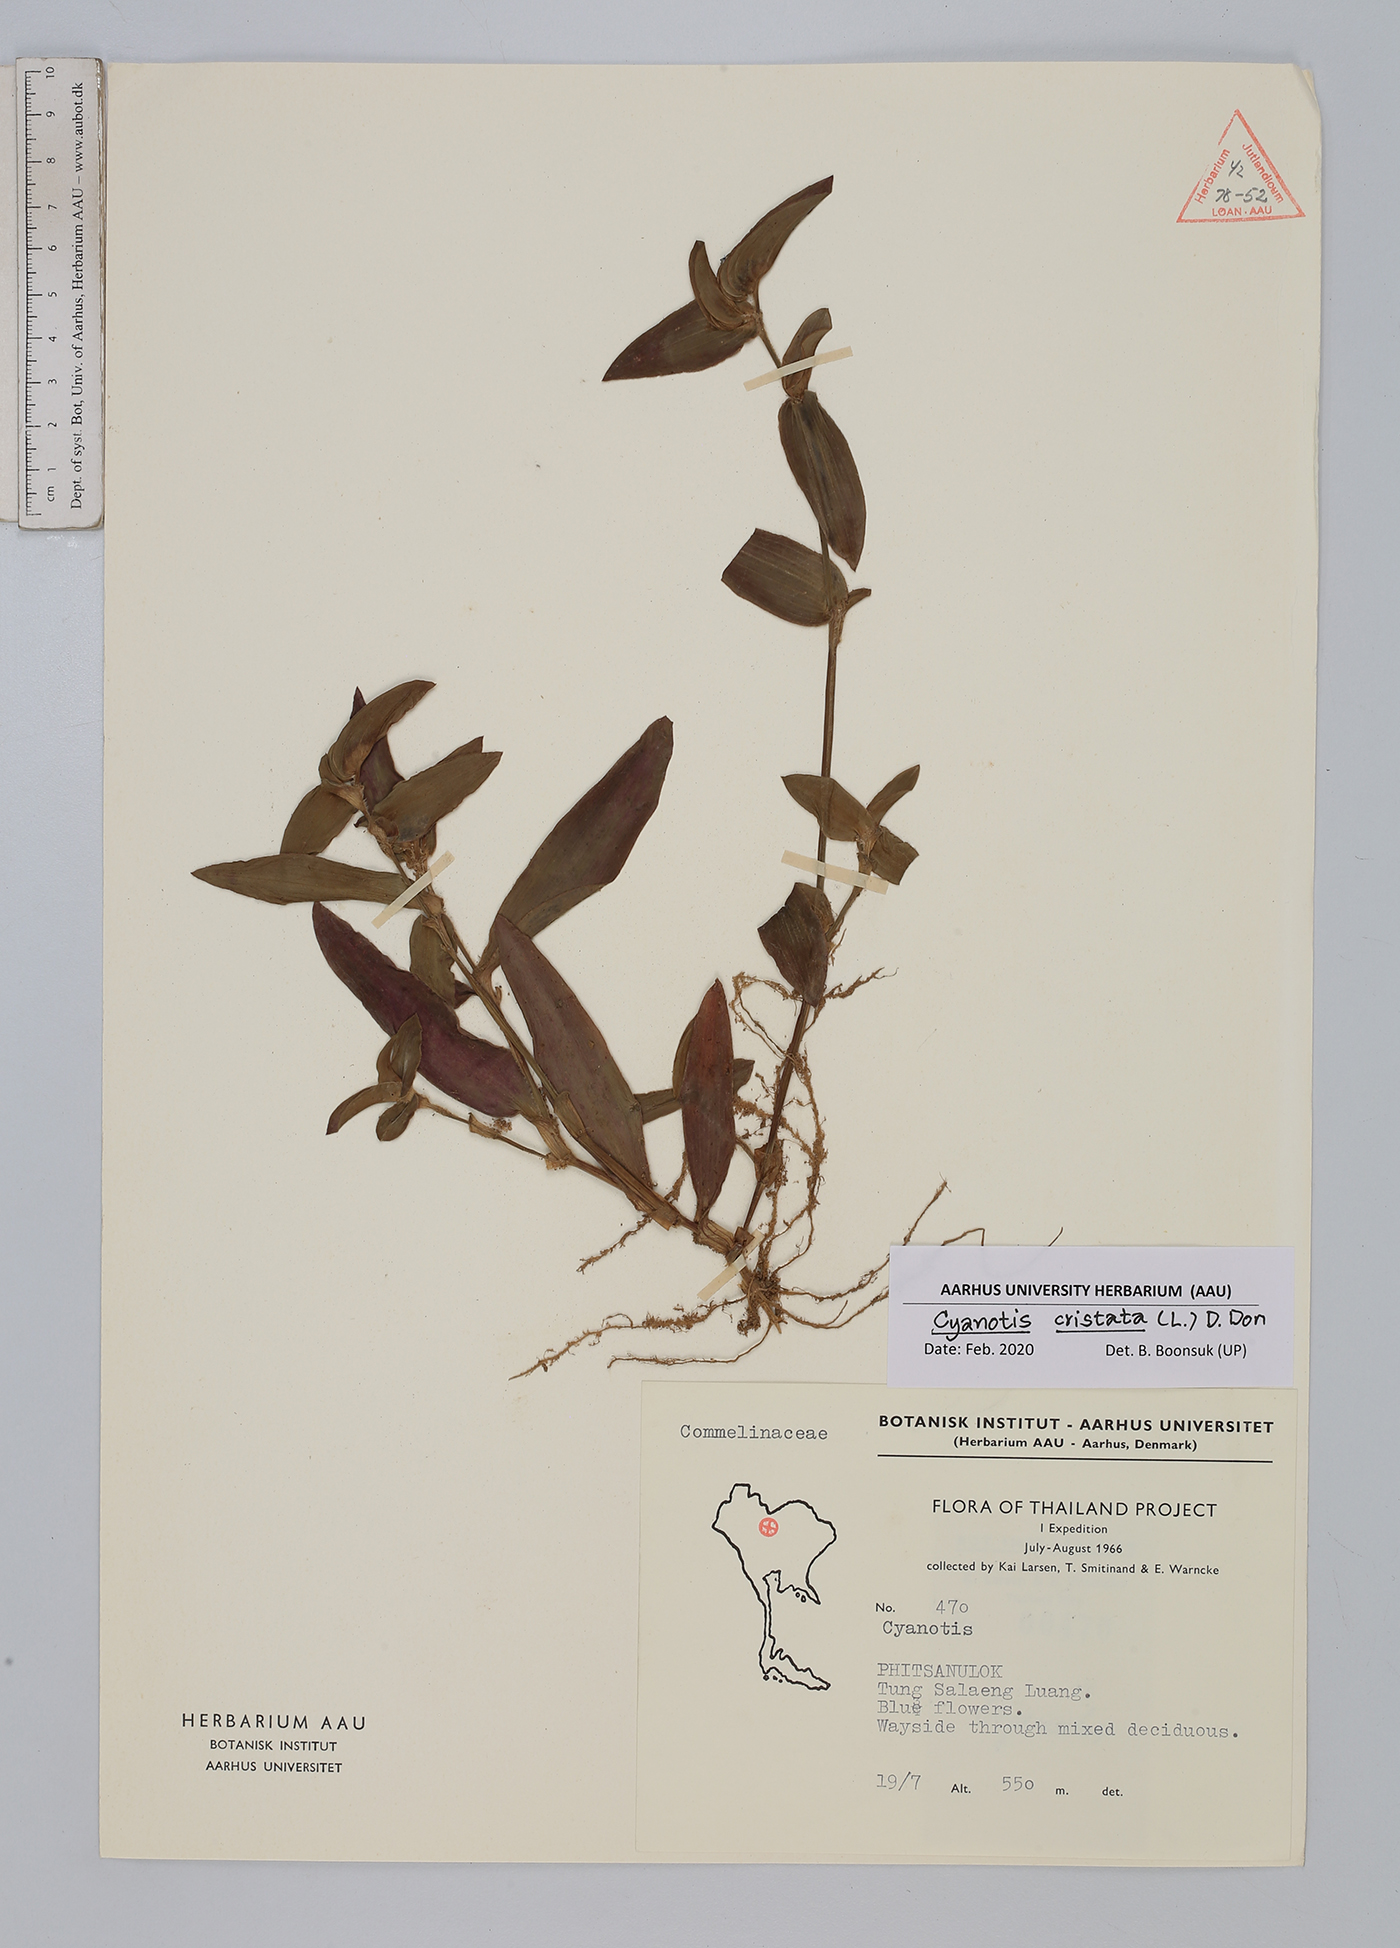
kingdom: Plantae
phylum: Tracheophyta
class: Liliopsida
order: Commelinales
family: Commelinaceae
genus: Cyanotis
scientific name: Cyanotis cristata
